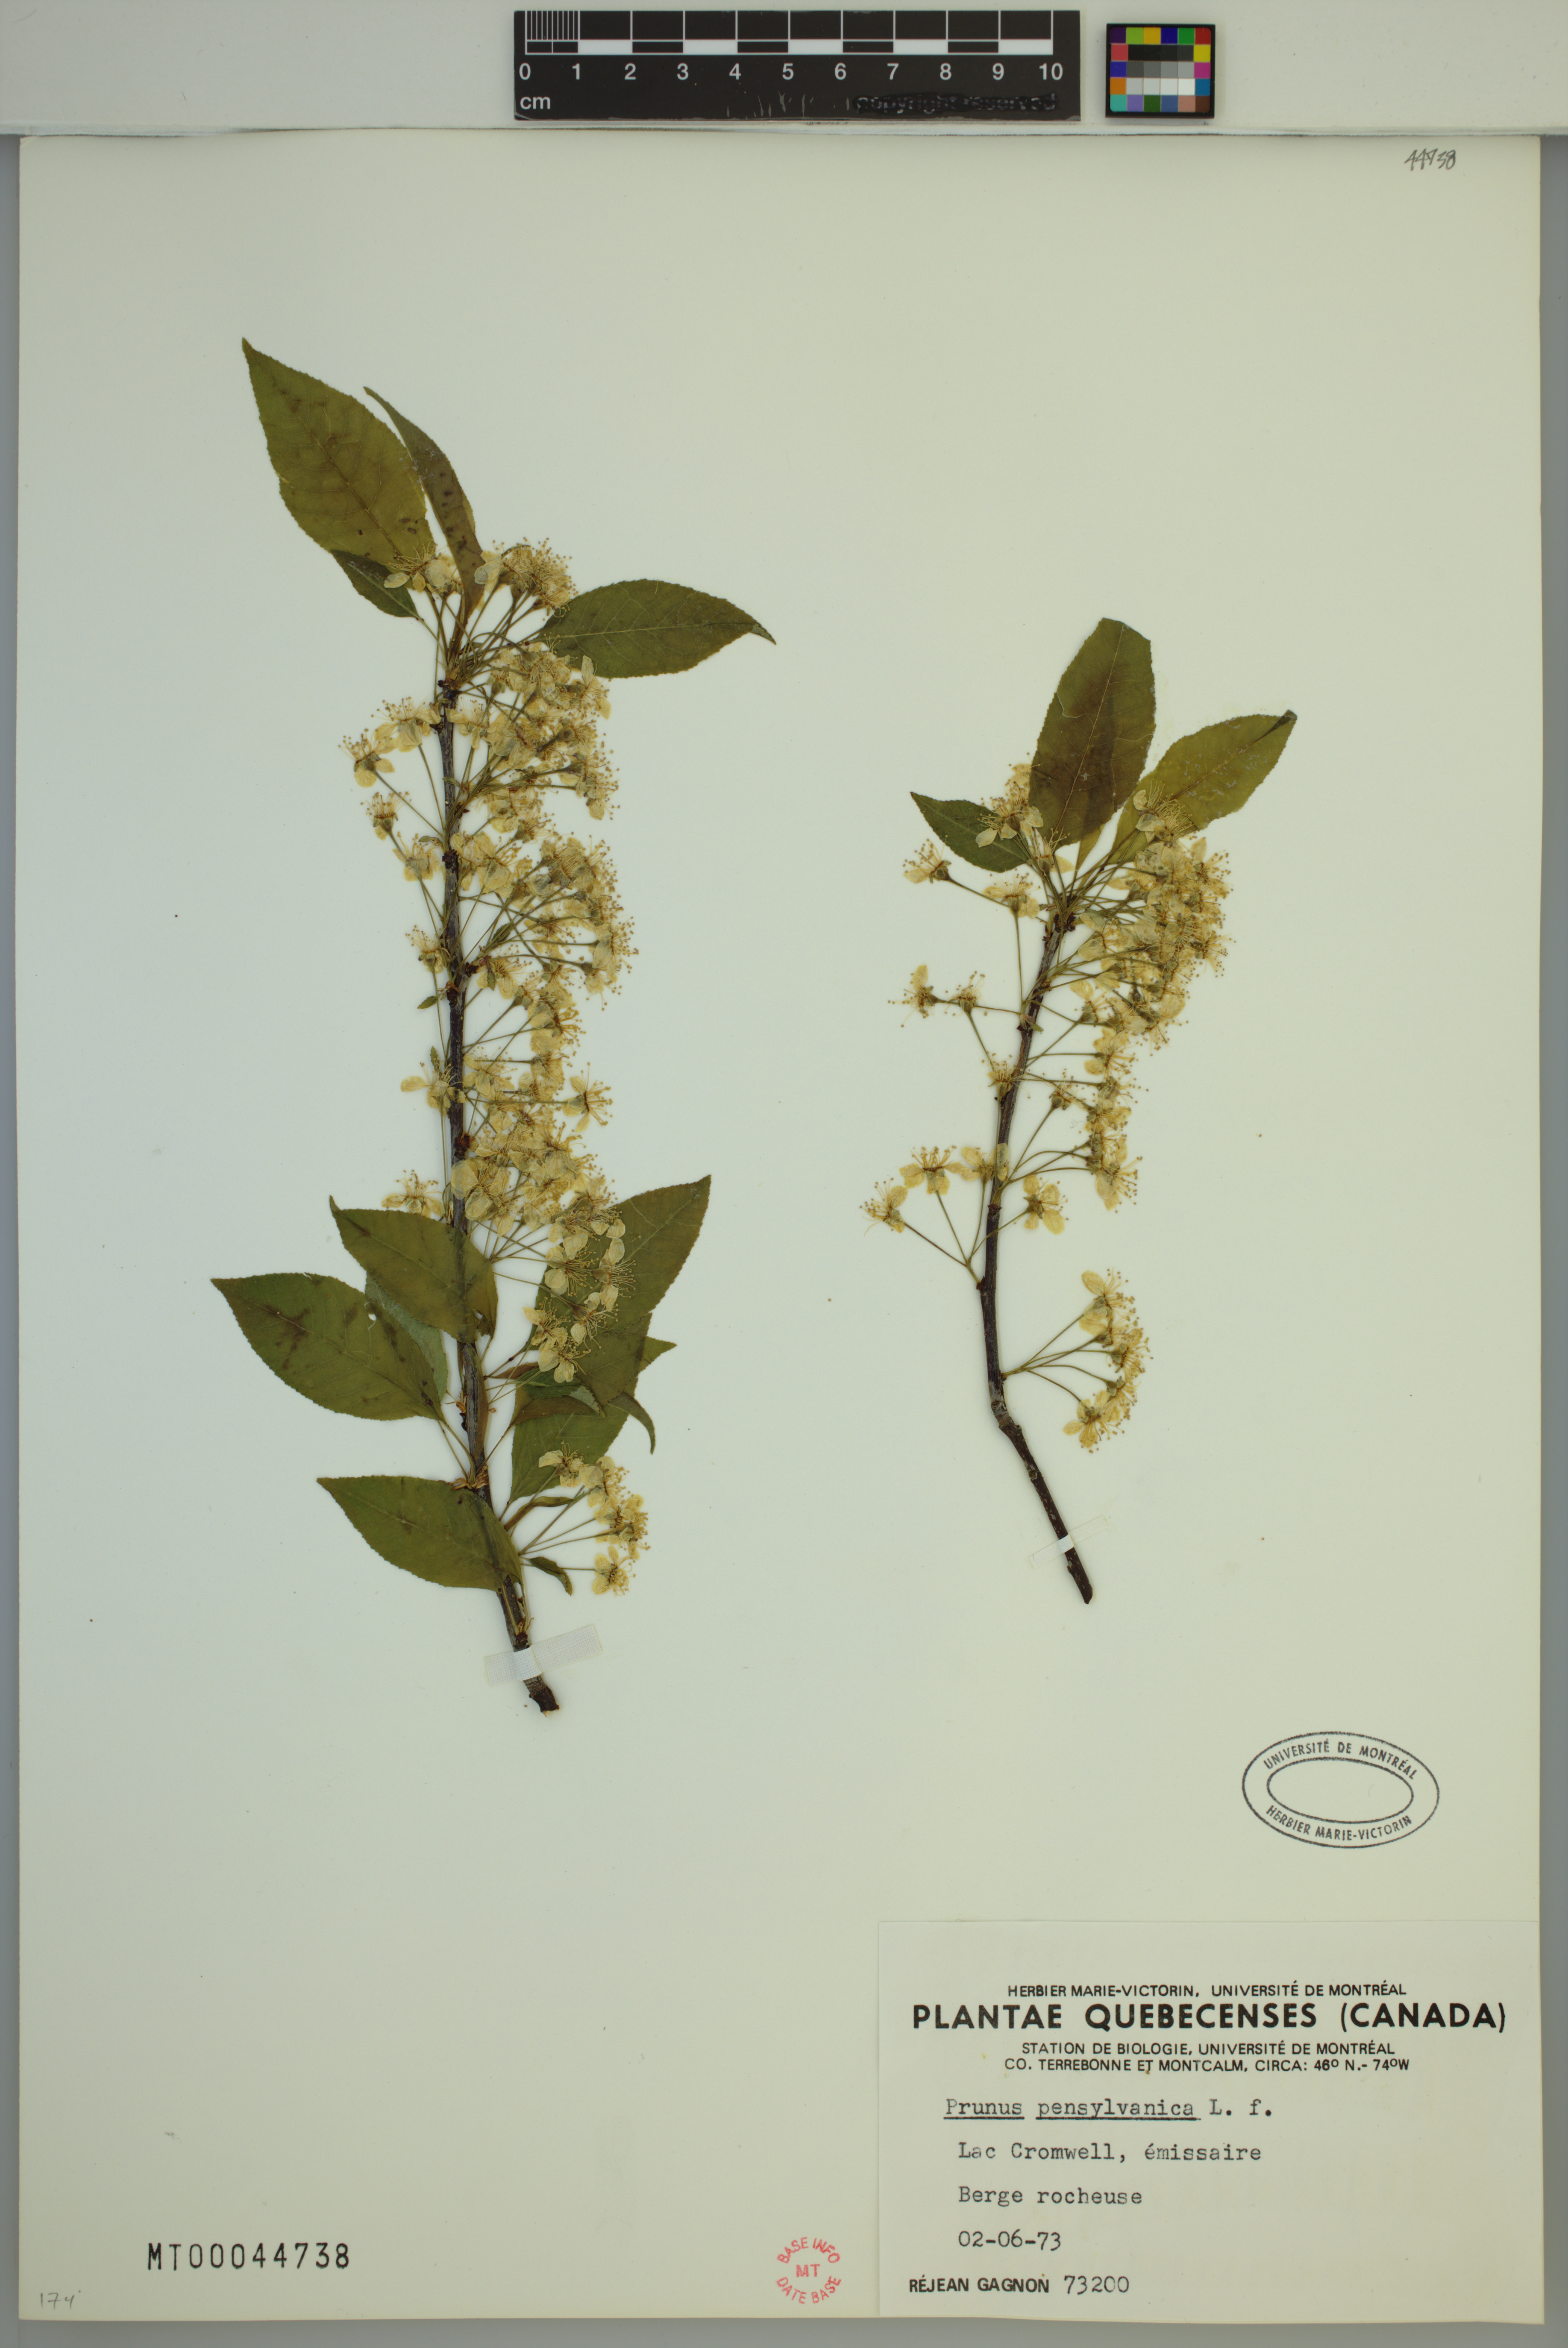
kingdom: Plantae
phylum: Tracheophyta
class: Magnoliopsida
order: Rosales
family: Rosaceae
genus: Prunus
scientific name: Prunus pensylvanica
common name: Pin cherry
